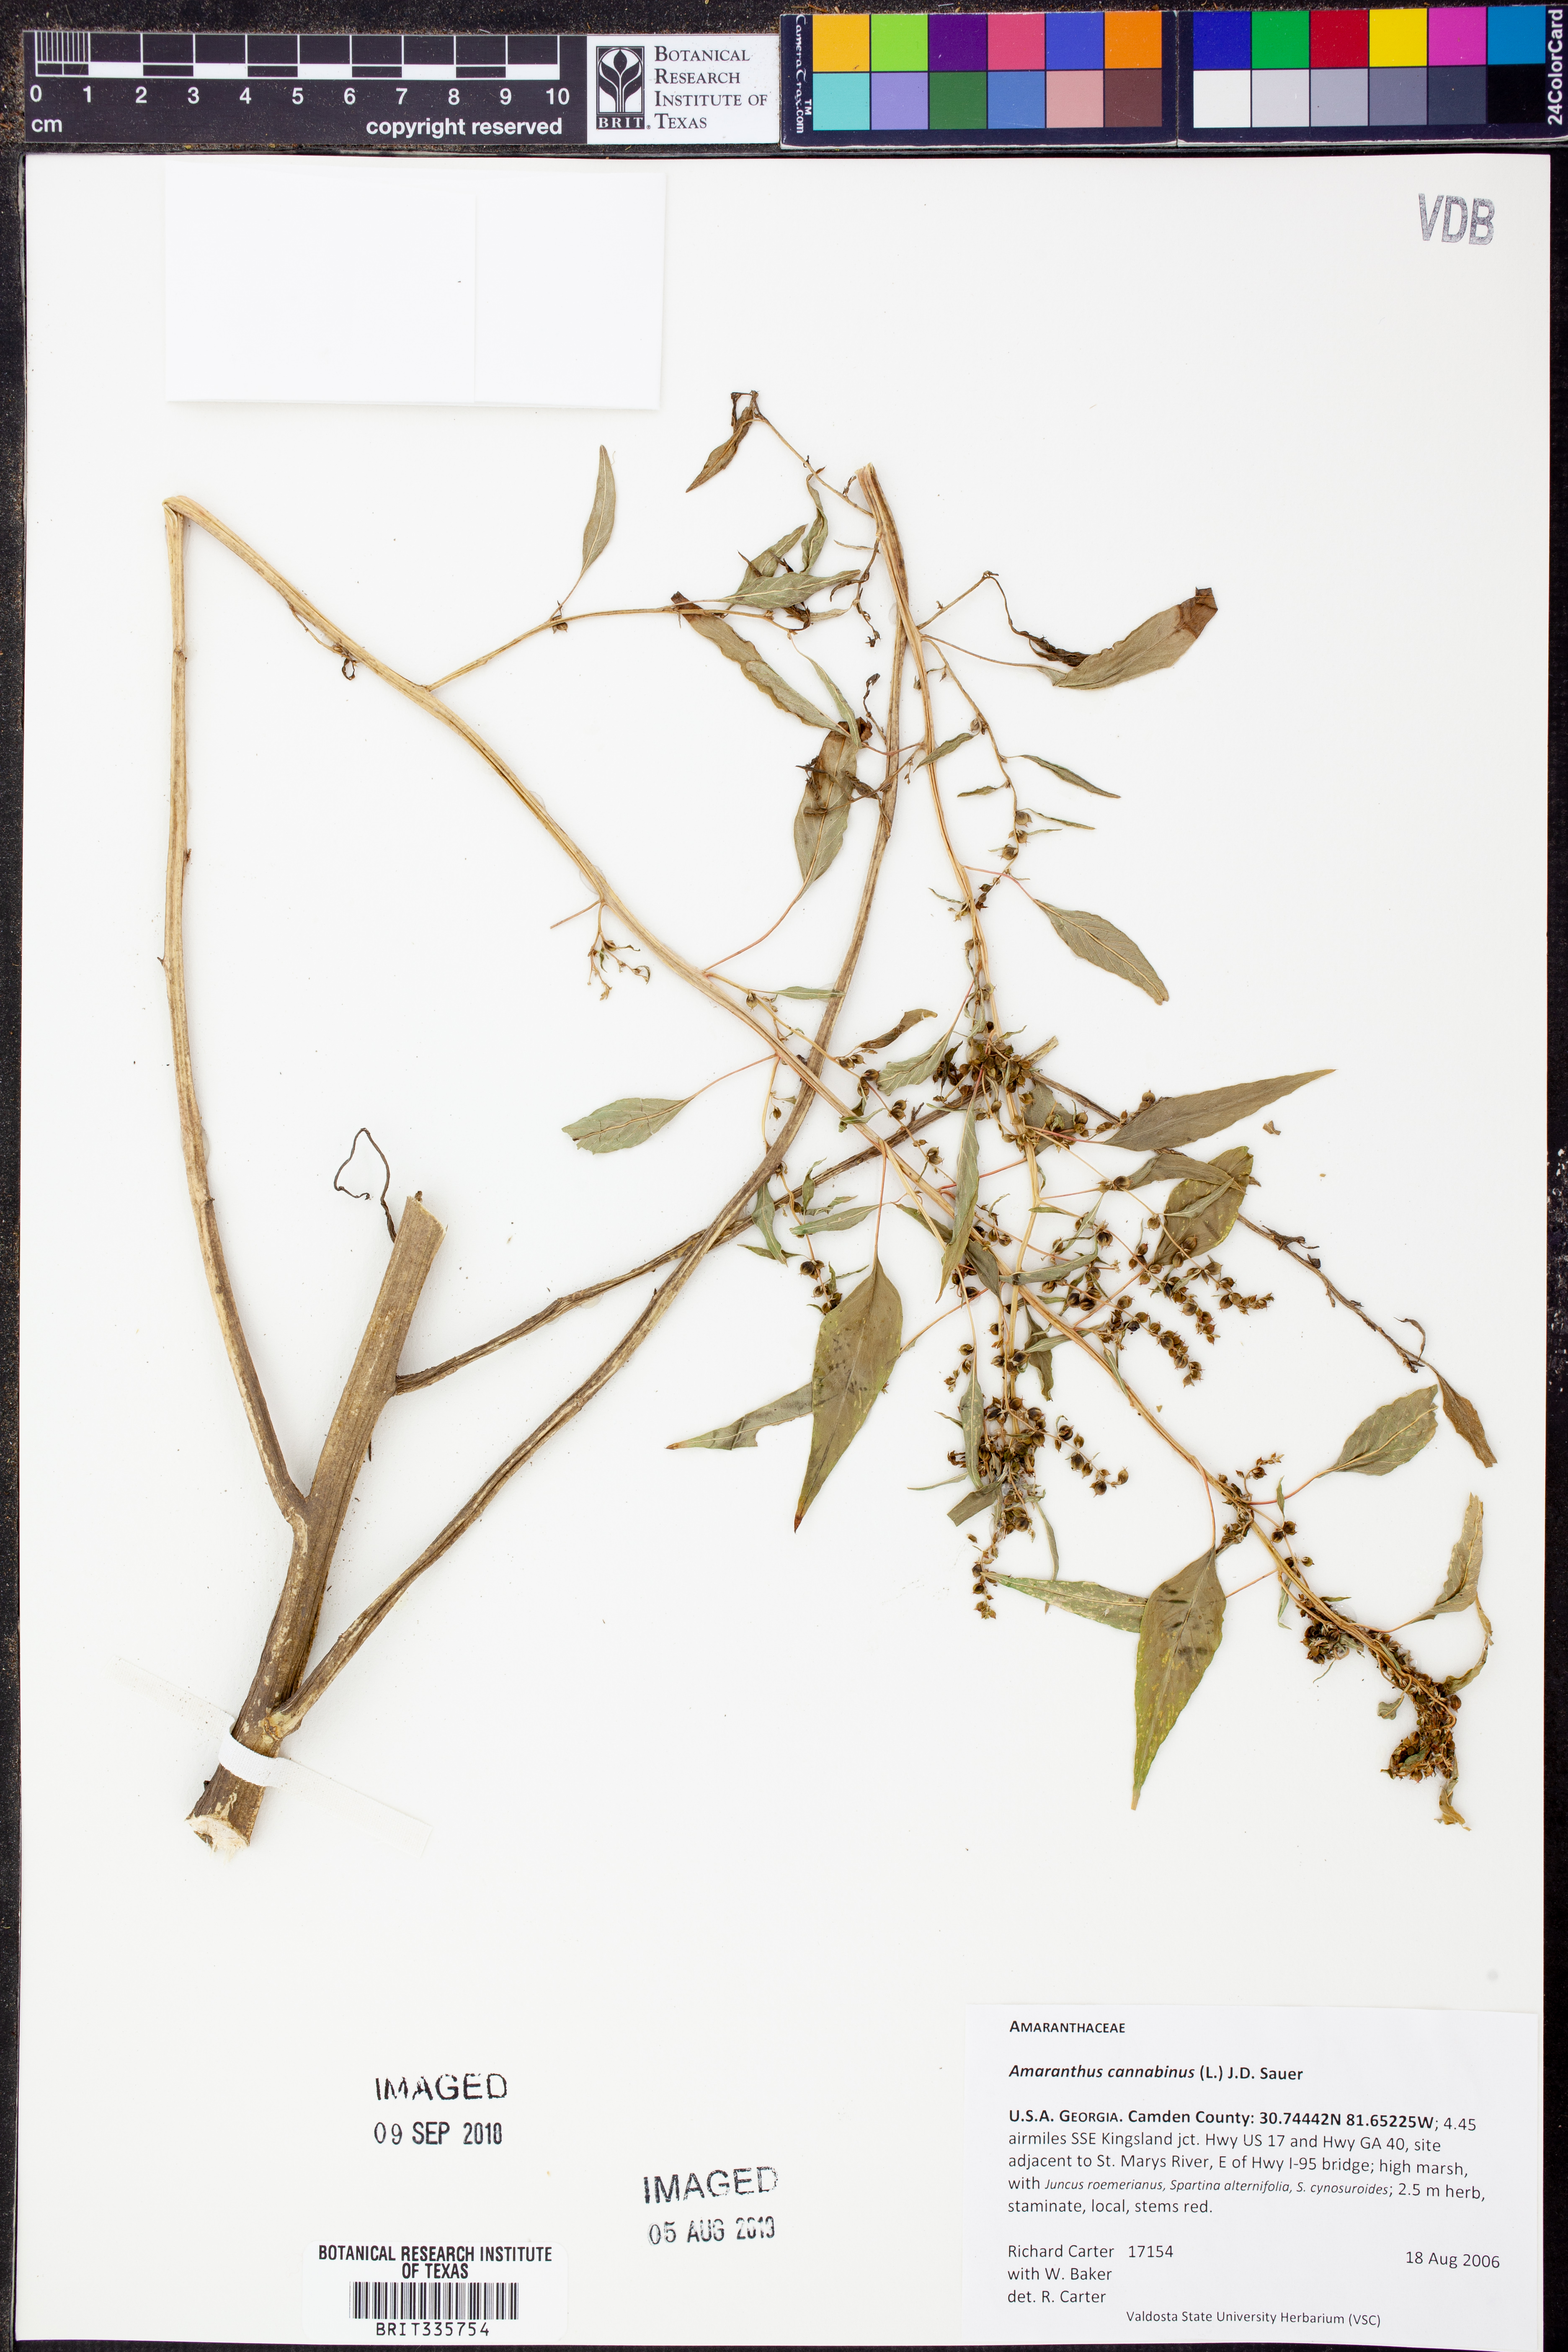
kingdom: Plantae
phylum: Tracheophyta
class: Magnoliopsida
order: Caryophyllales
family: Amaranthaceae
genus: Amaranthus
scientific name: Amaranthus cannabinus
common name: Salt-marsh water-hemp
